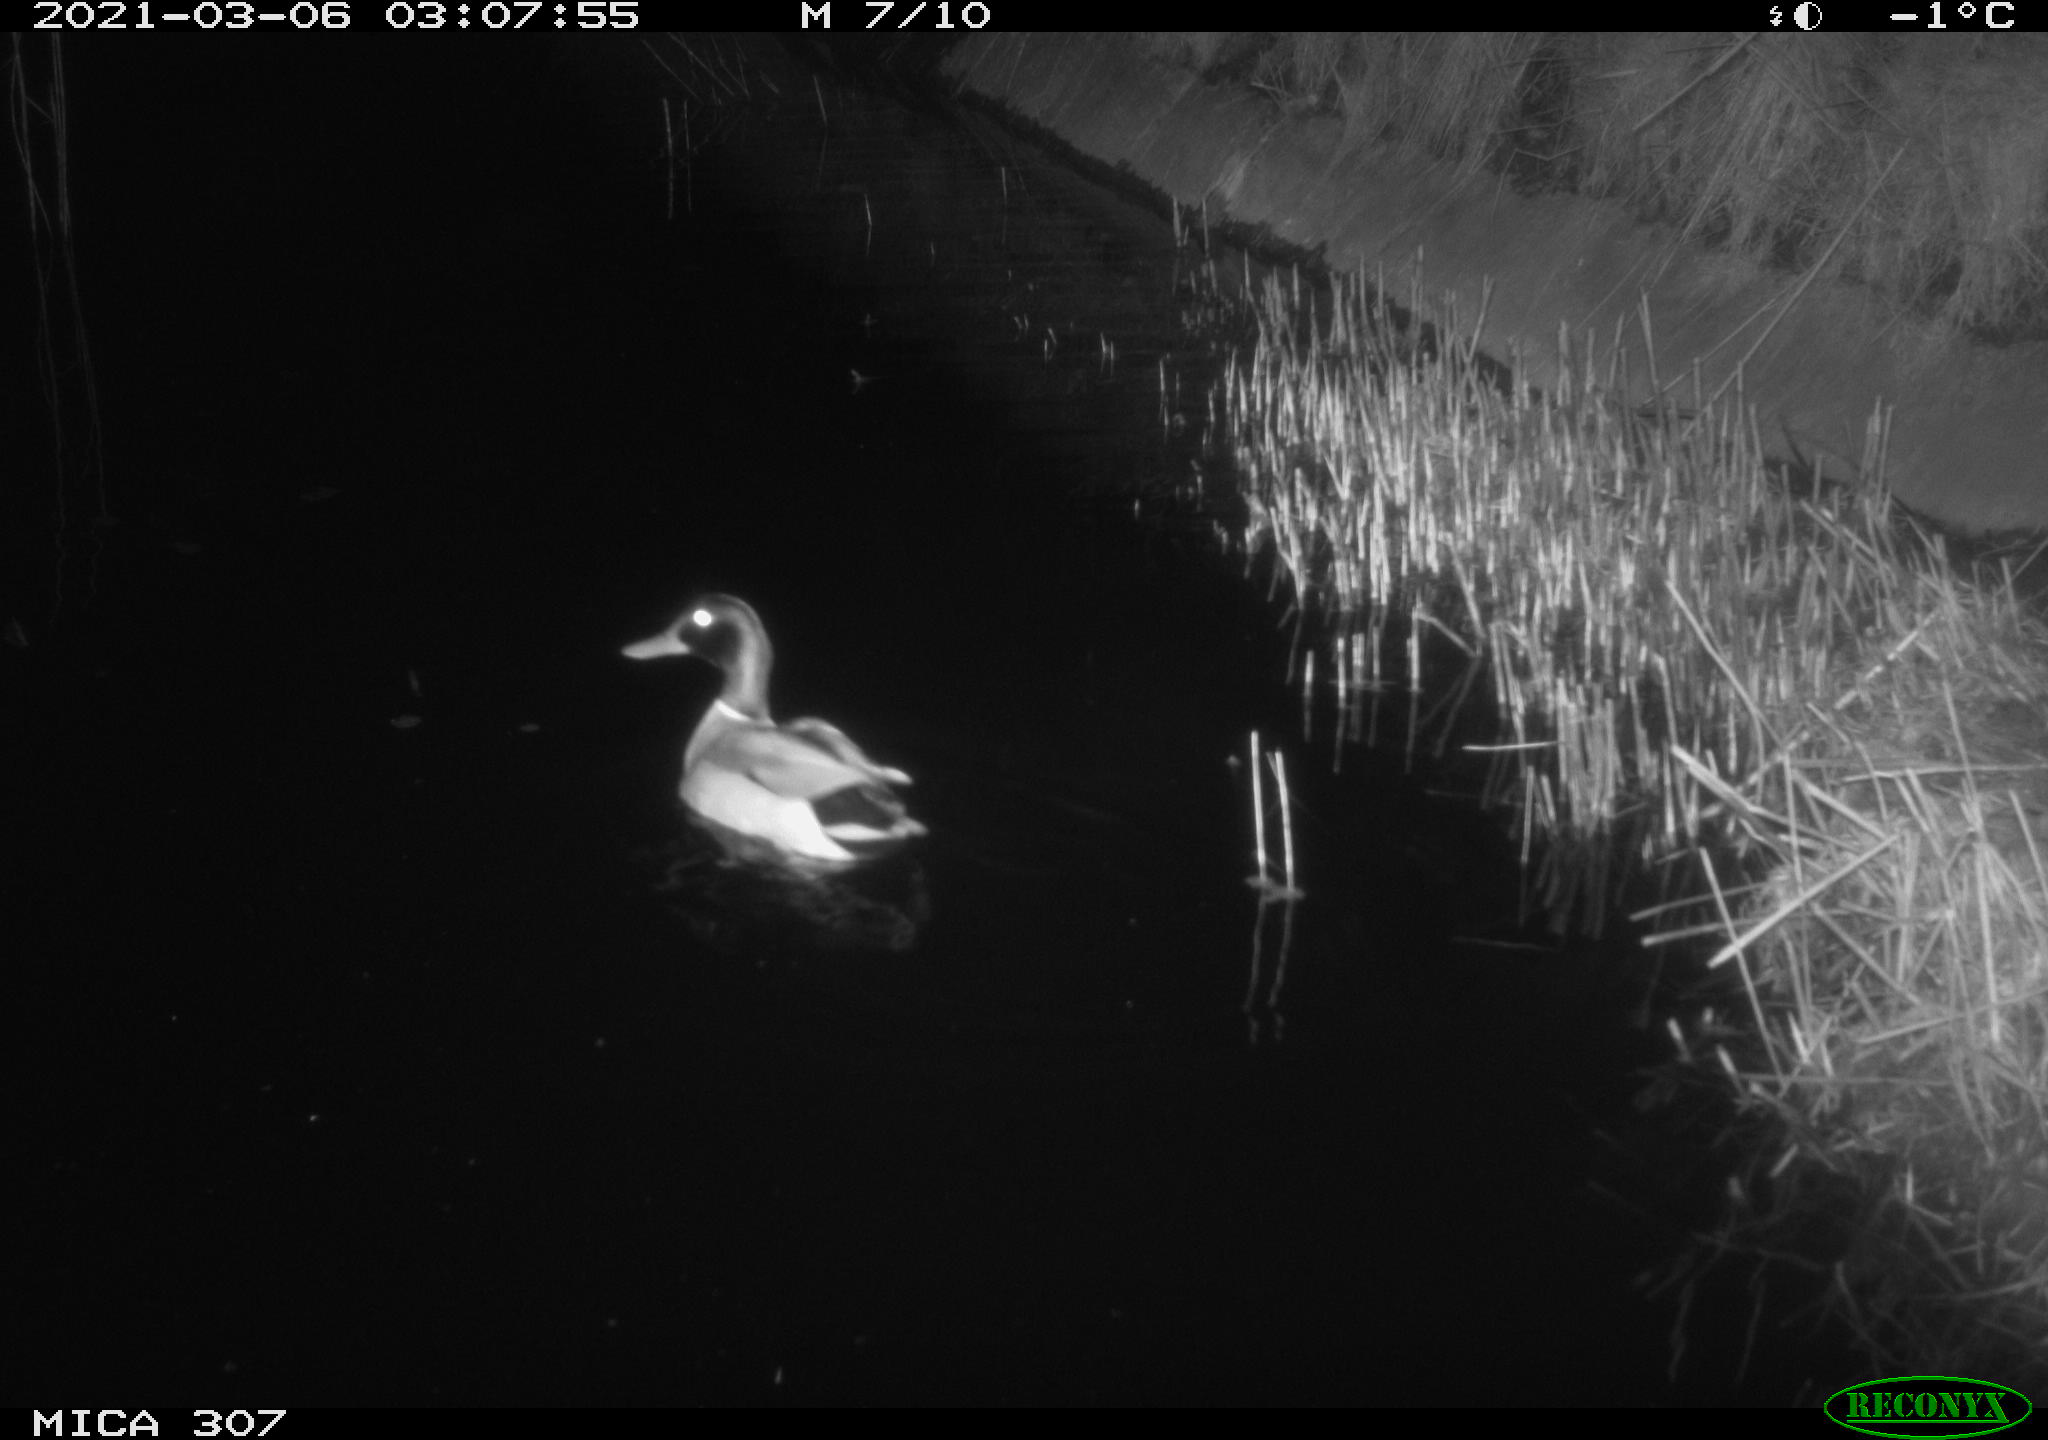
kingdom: Animalia
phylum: Chordata
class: Aves
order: Anseriformes
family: Anatidae
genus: Anas
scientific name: Anas platyrhynchos
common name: Mallard
